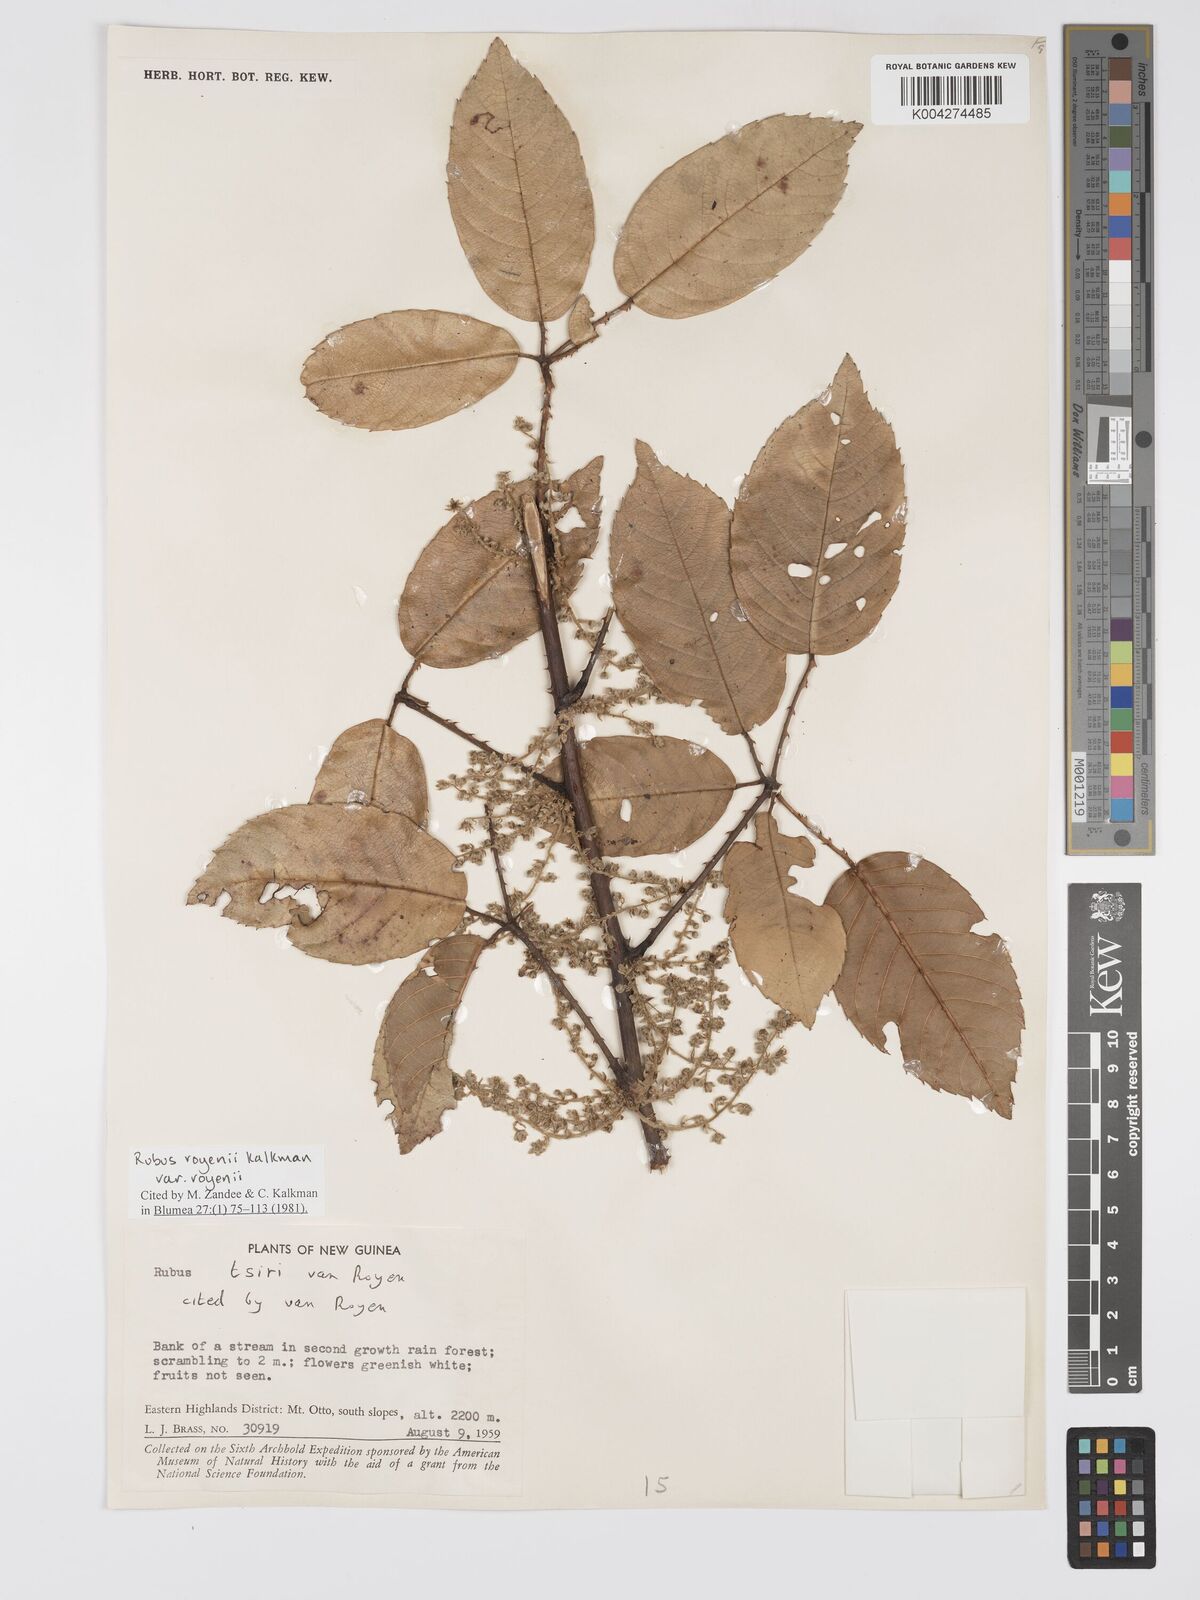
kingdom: Plantae
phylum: Tracheophyta
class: Magnoliopsida
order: Rosales
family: Rosaceae
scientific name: Rosaceae
